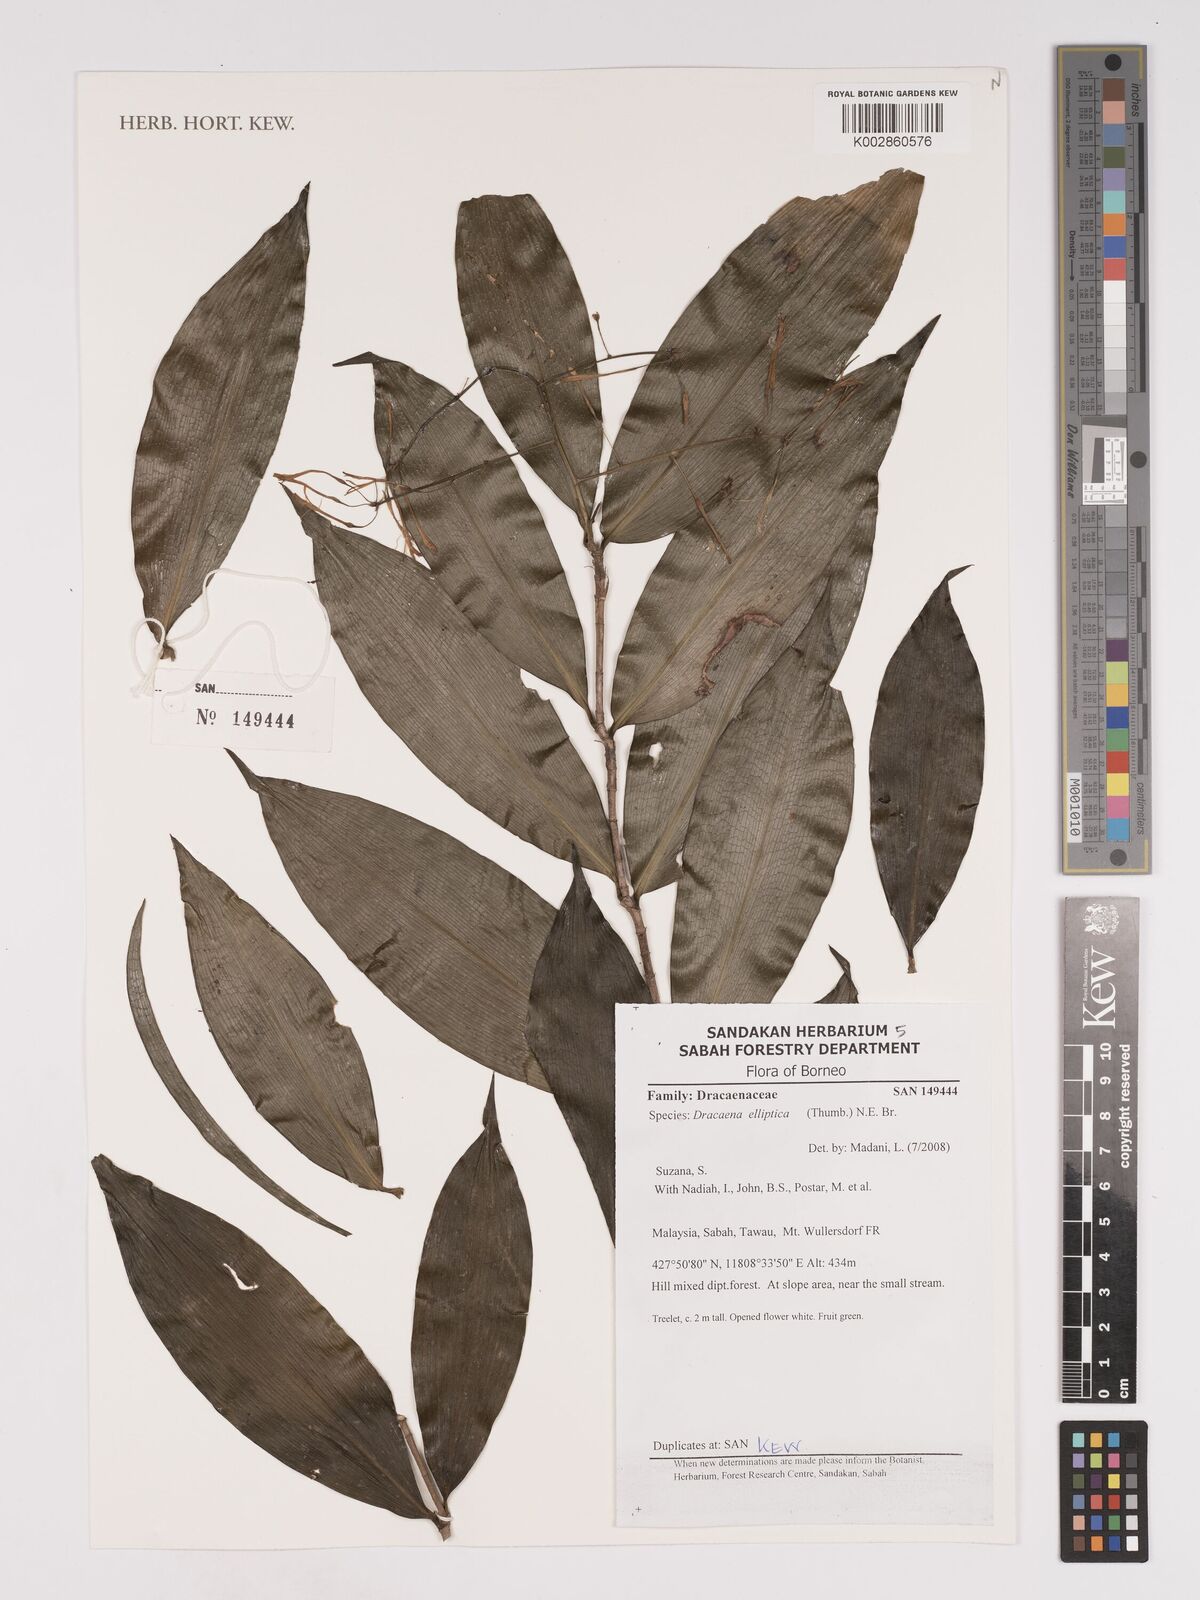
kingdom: Plantae
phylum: Tracheophyta
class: Liliopsida
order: Asparagales
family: Asparagaceae
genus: Dracaena
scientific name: Dracaena elliptica
